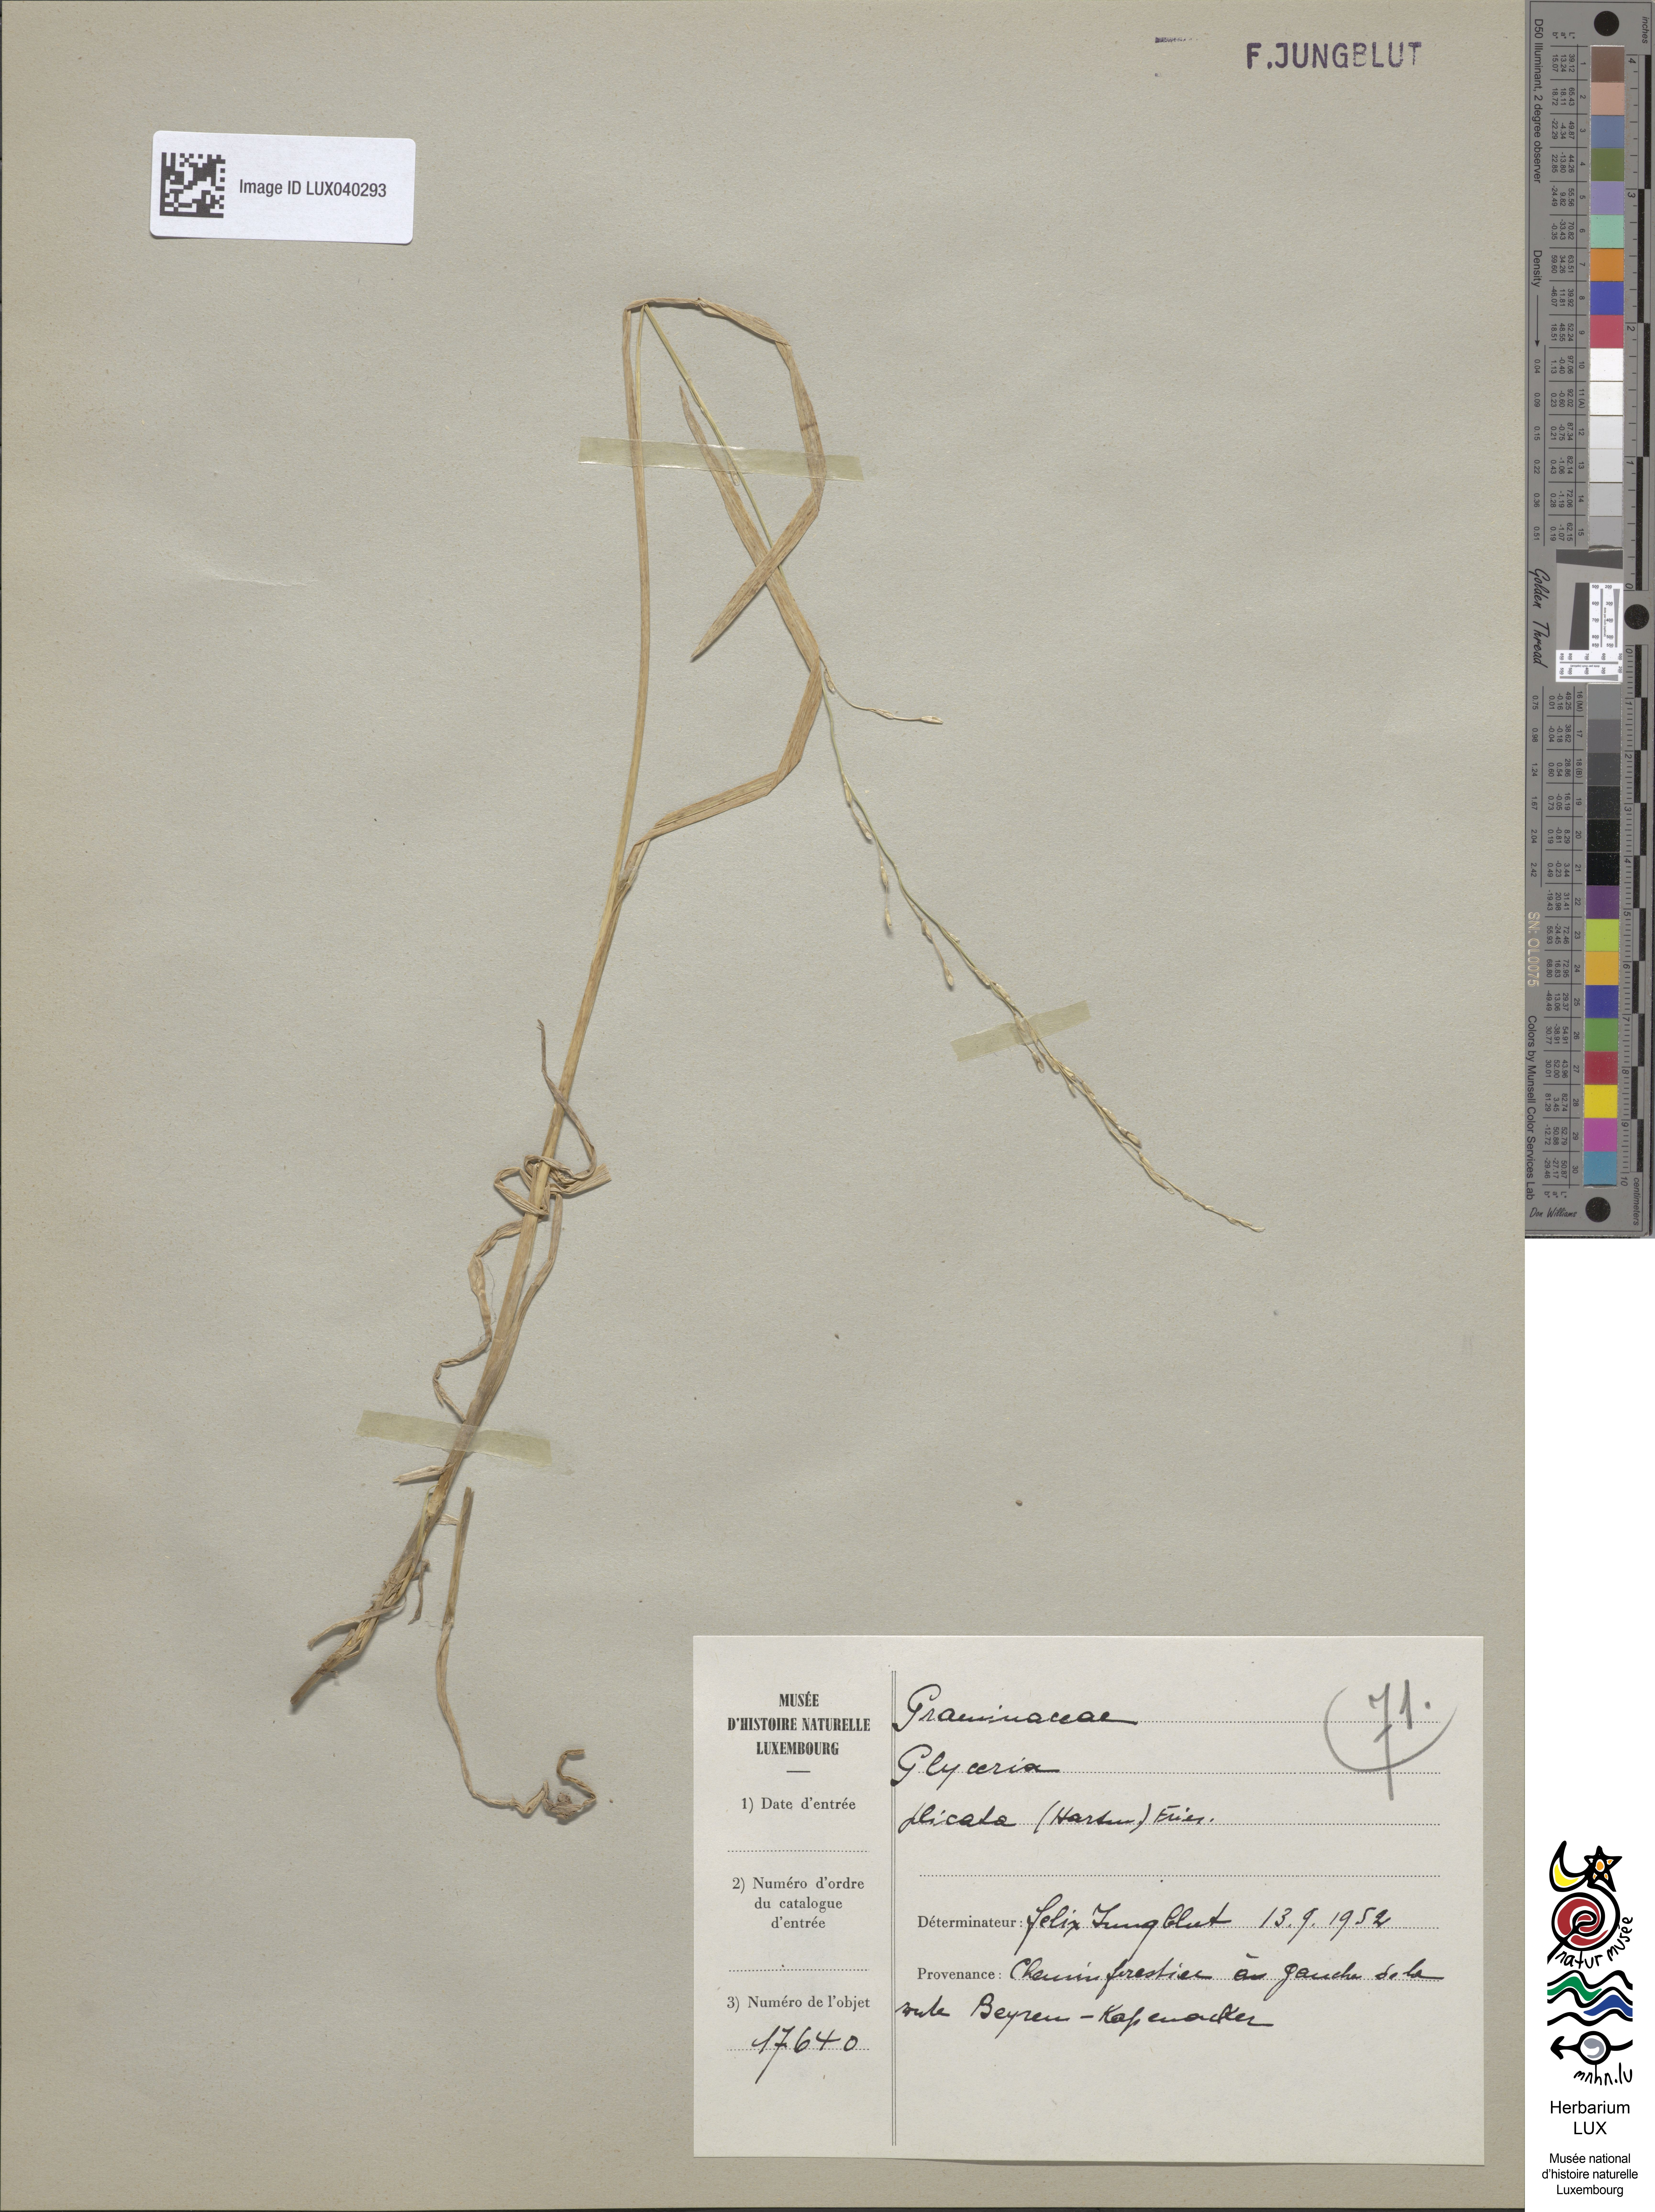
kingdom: Plantae
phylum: Tracheophyta
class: Liliopsida
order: Poales
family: Poaceae
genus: Glyceria
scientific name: Glyceria notata
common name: Plicate sweet-grass
